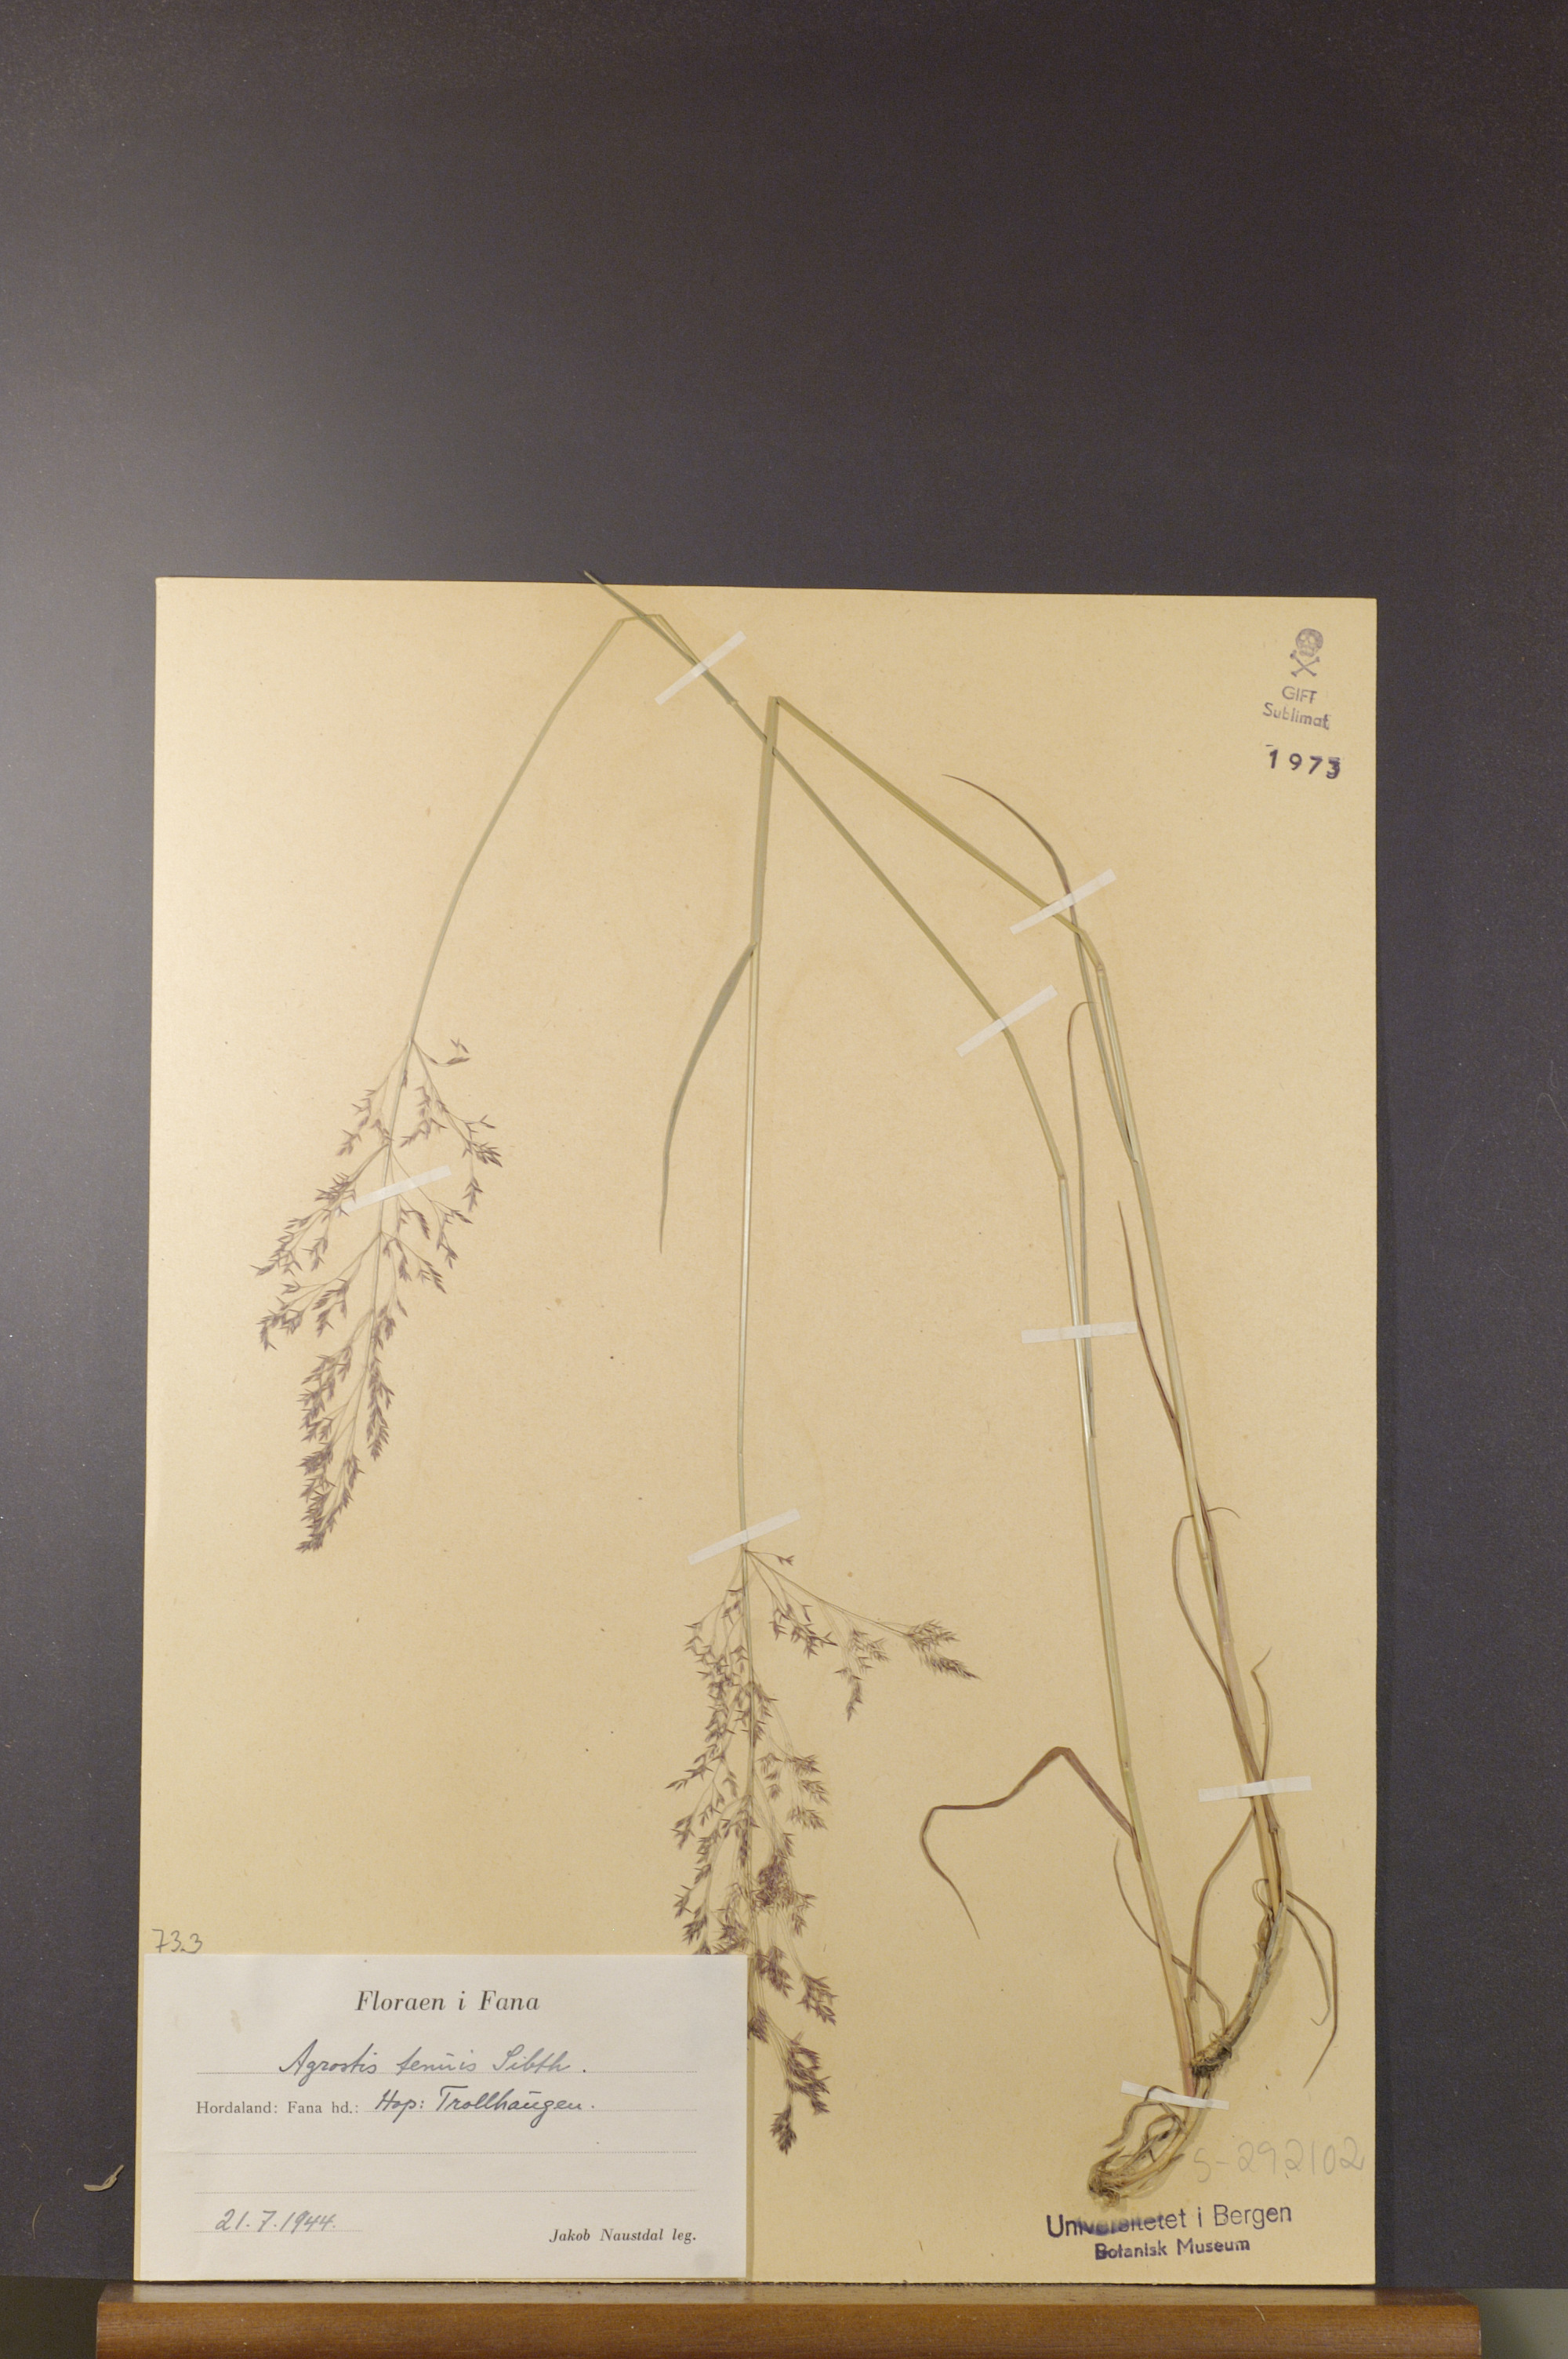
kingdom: Plantae
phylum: Tracheophyta
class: Liliopsida
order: Poales
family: Poaceae
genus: Agrostis
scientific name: Agrostis capillaris
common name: Colonial bentgrass
